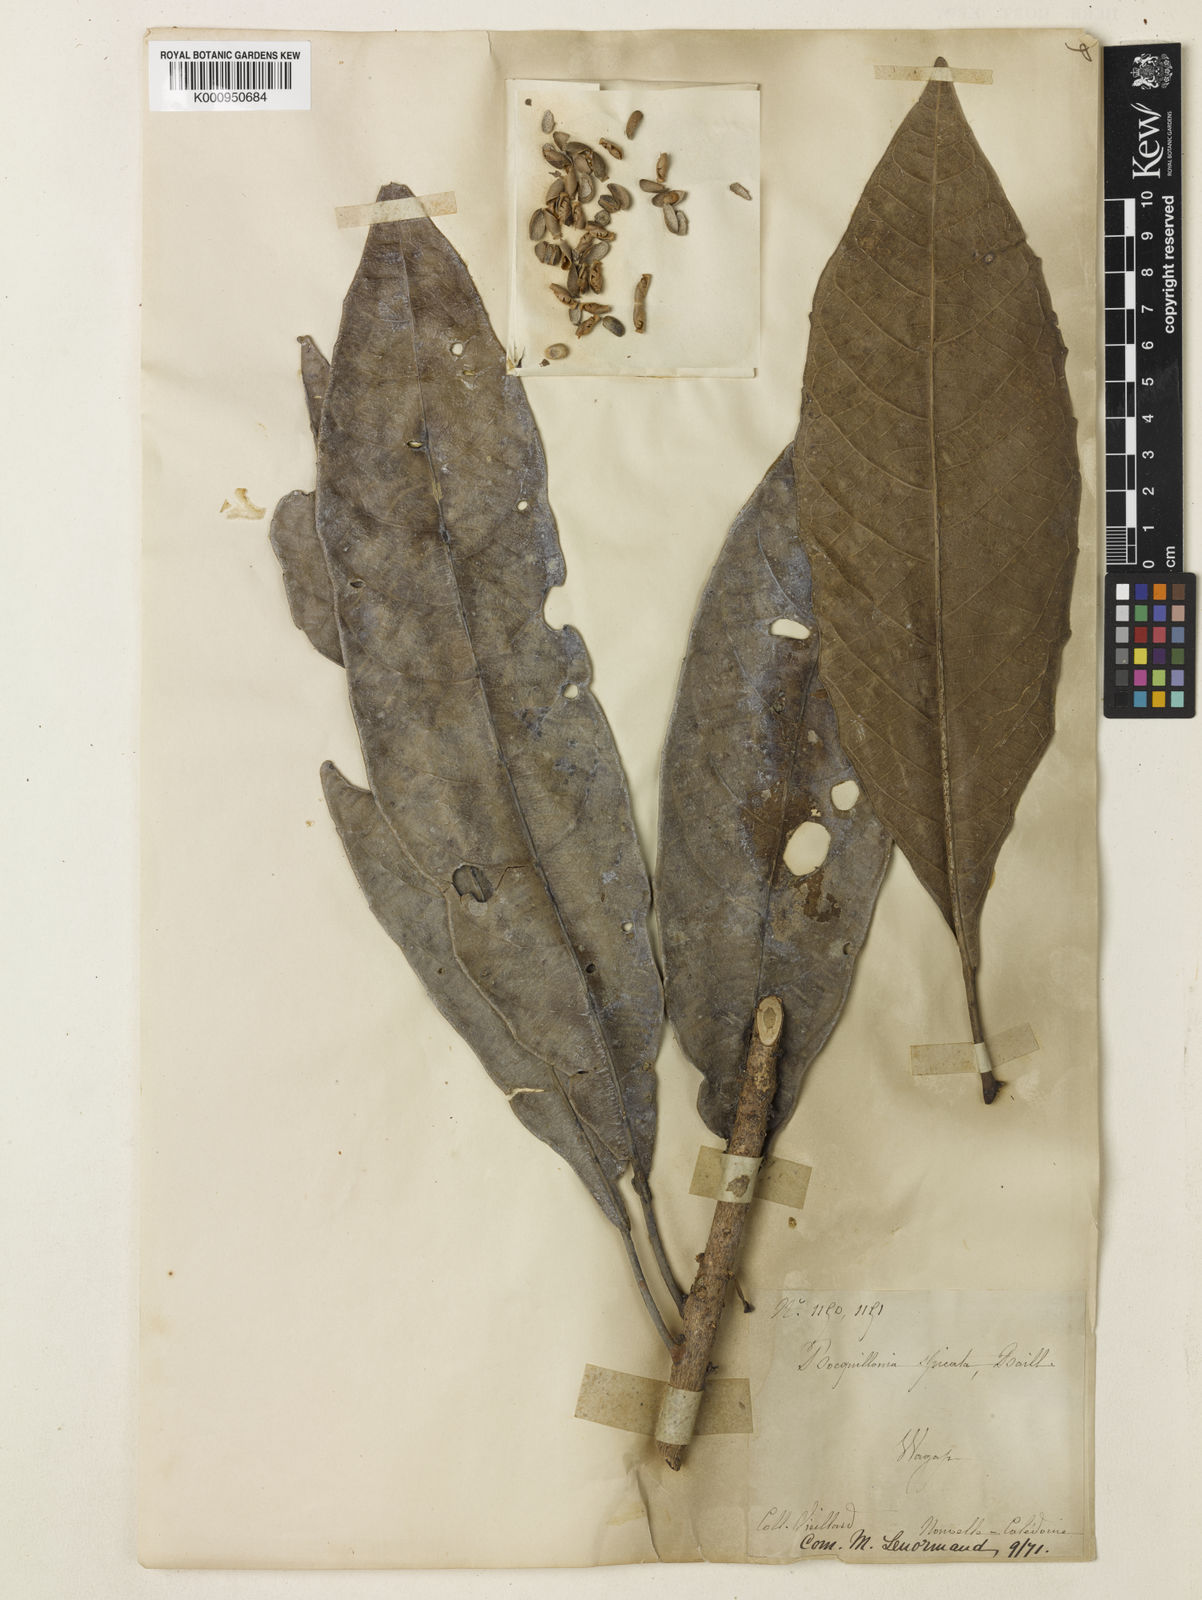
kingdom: Plantae
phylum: Tracheophyta
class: Magnoliopsida
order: Malpighiales
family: Euphorbiaceae
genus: Bocquillonia
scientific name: Bocquillonia spicata
